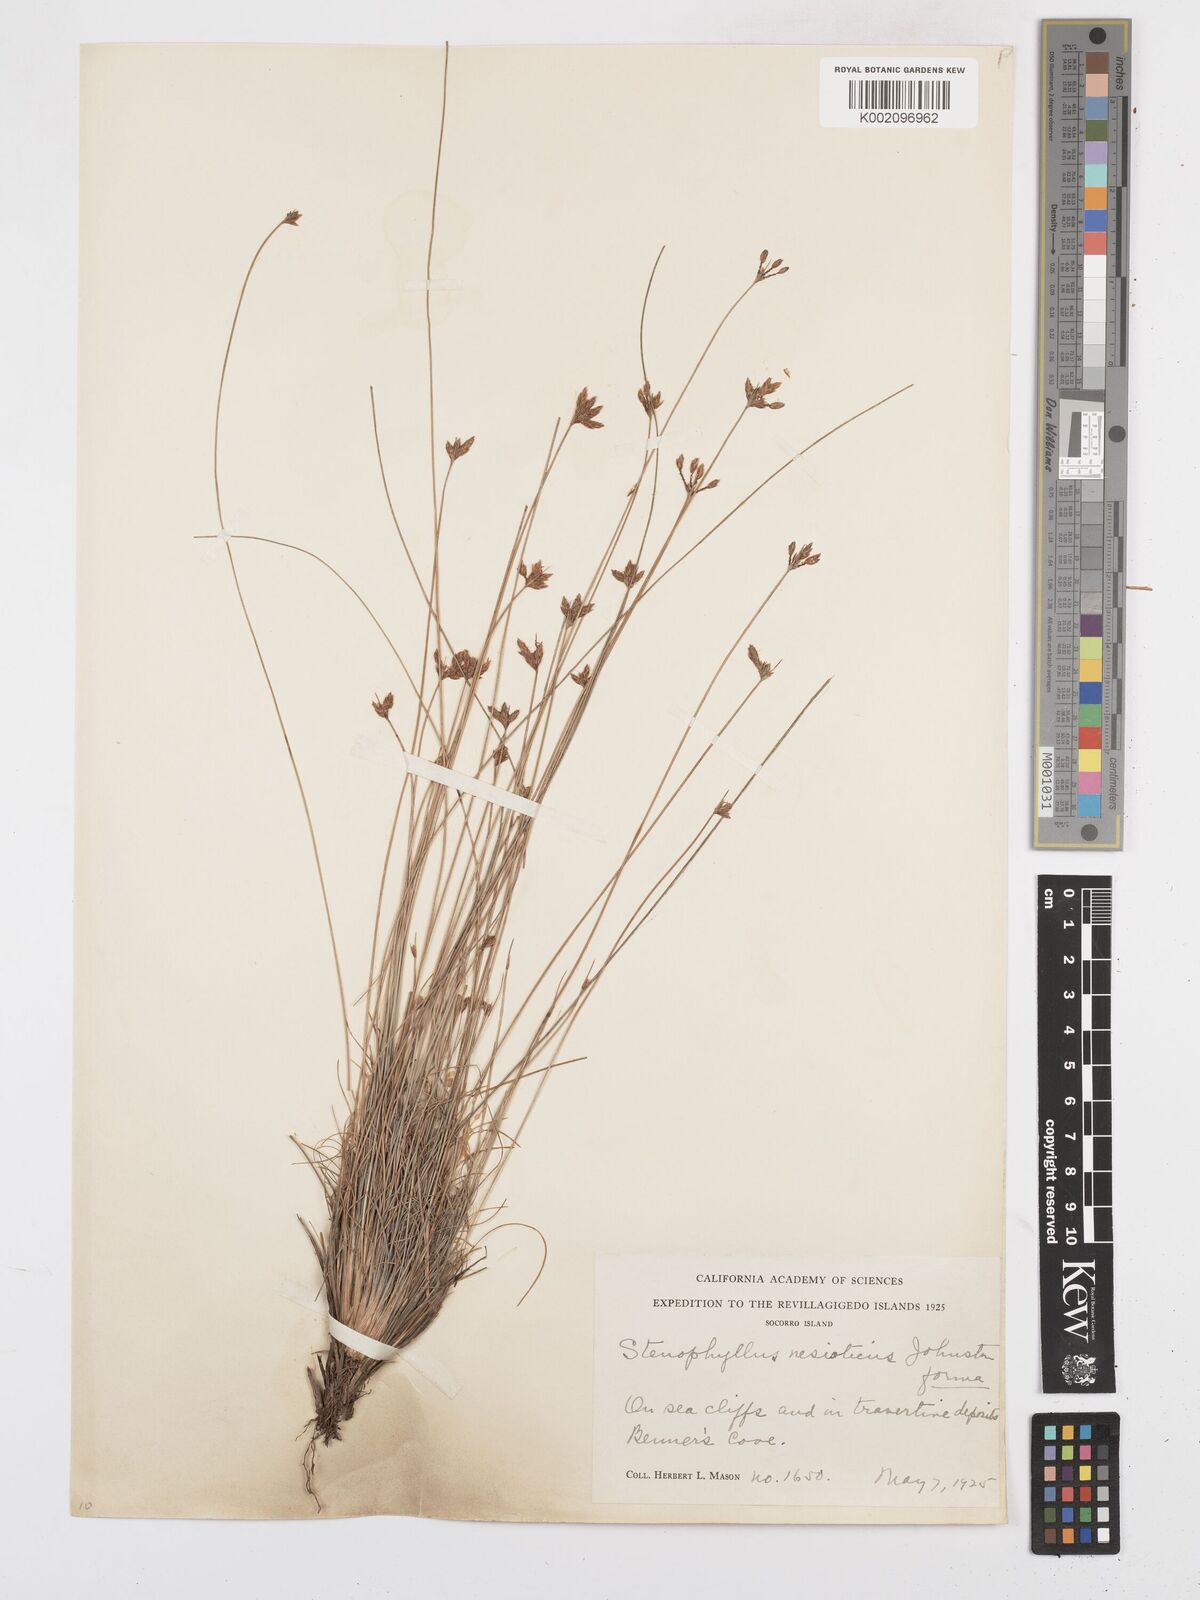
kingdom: Plantae
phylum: Tracheophyta
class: Liliopsida
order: Poales
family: Cyperaceae
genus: Bulbostylis
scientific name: Bulbostylis nesiotica
